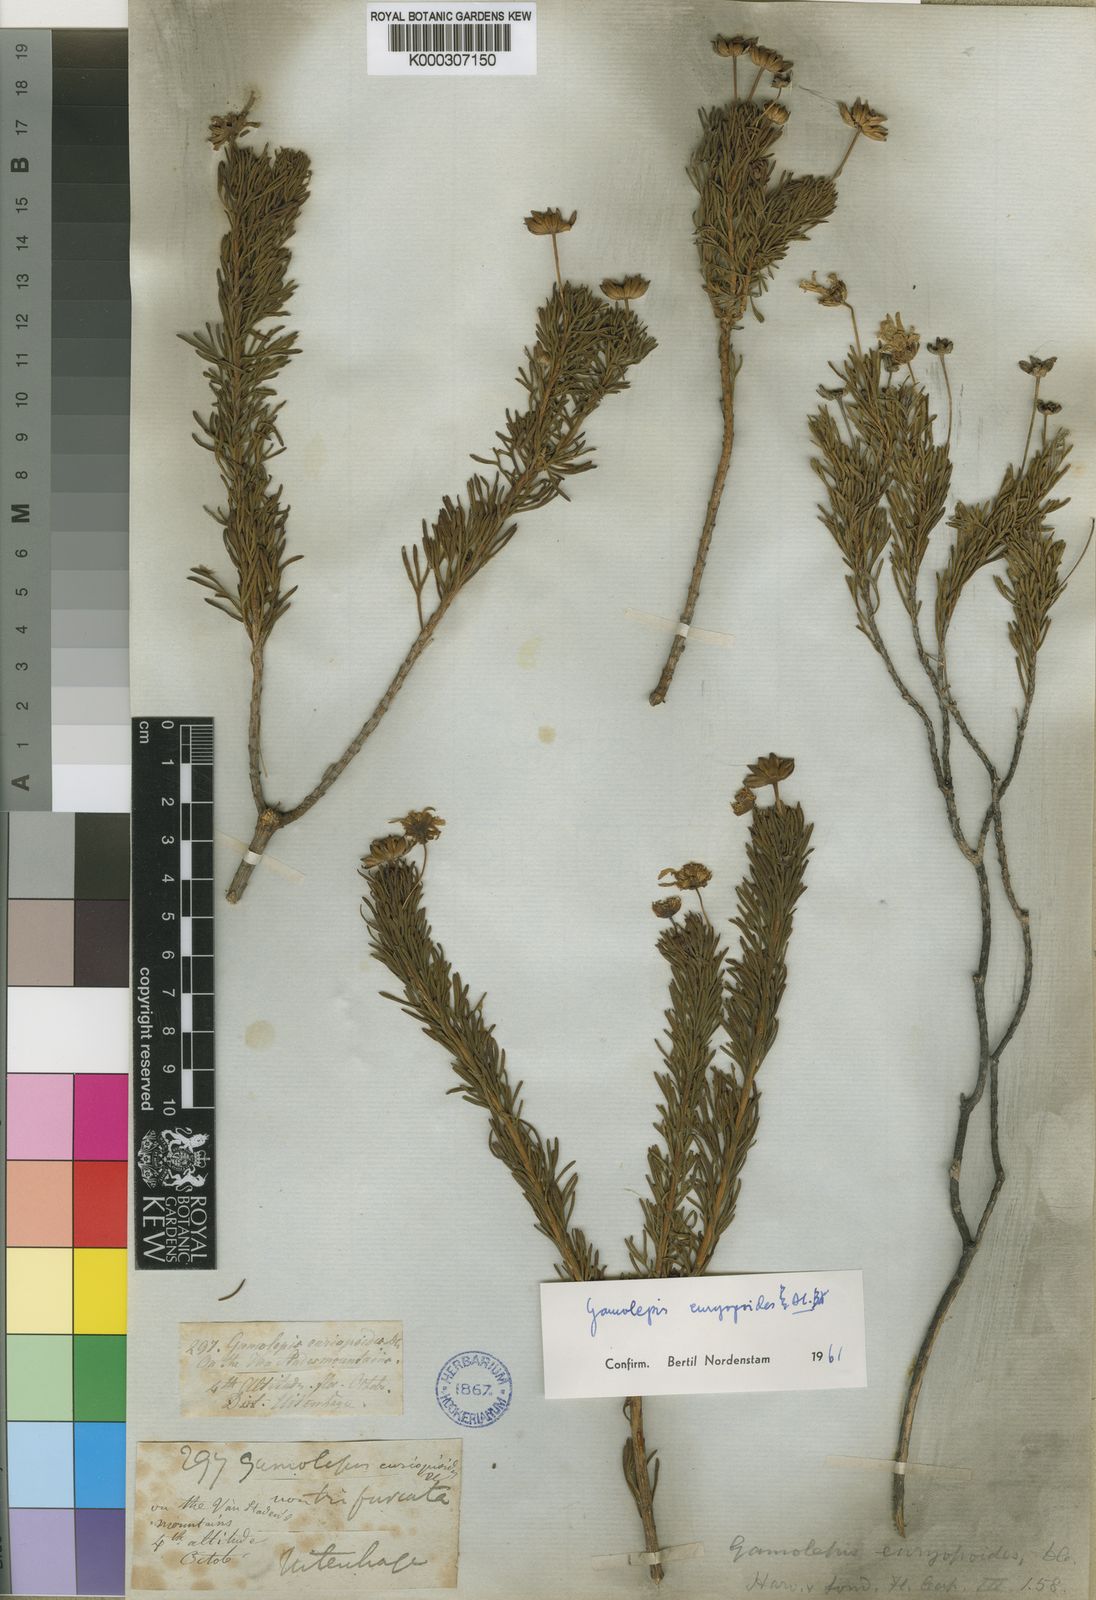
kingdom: Plantae
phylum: Tracheophyta
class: Magnoliopsida
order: Asterales
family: Asteraceae
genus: Euryops
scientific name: Euryops euryopoides
